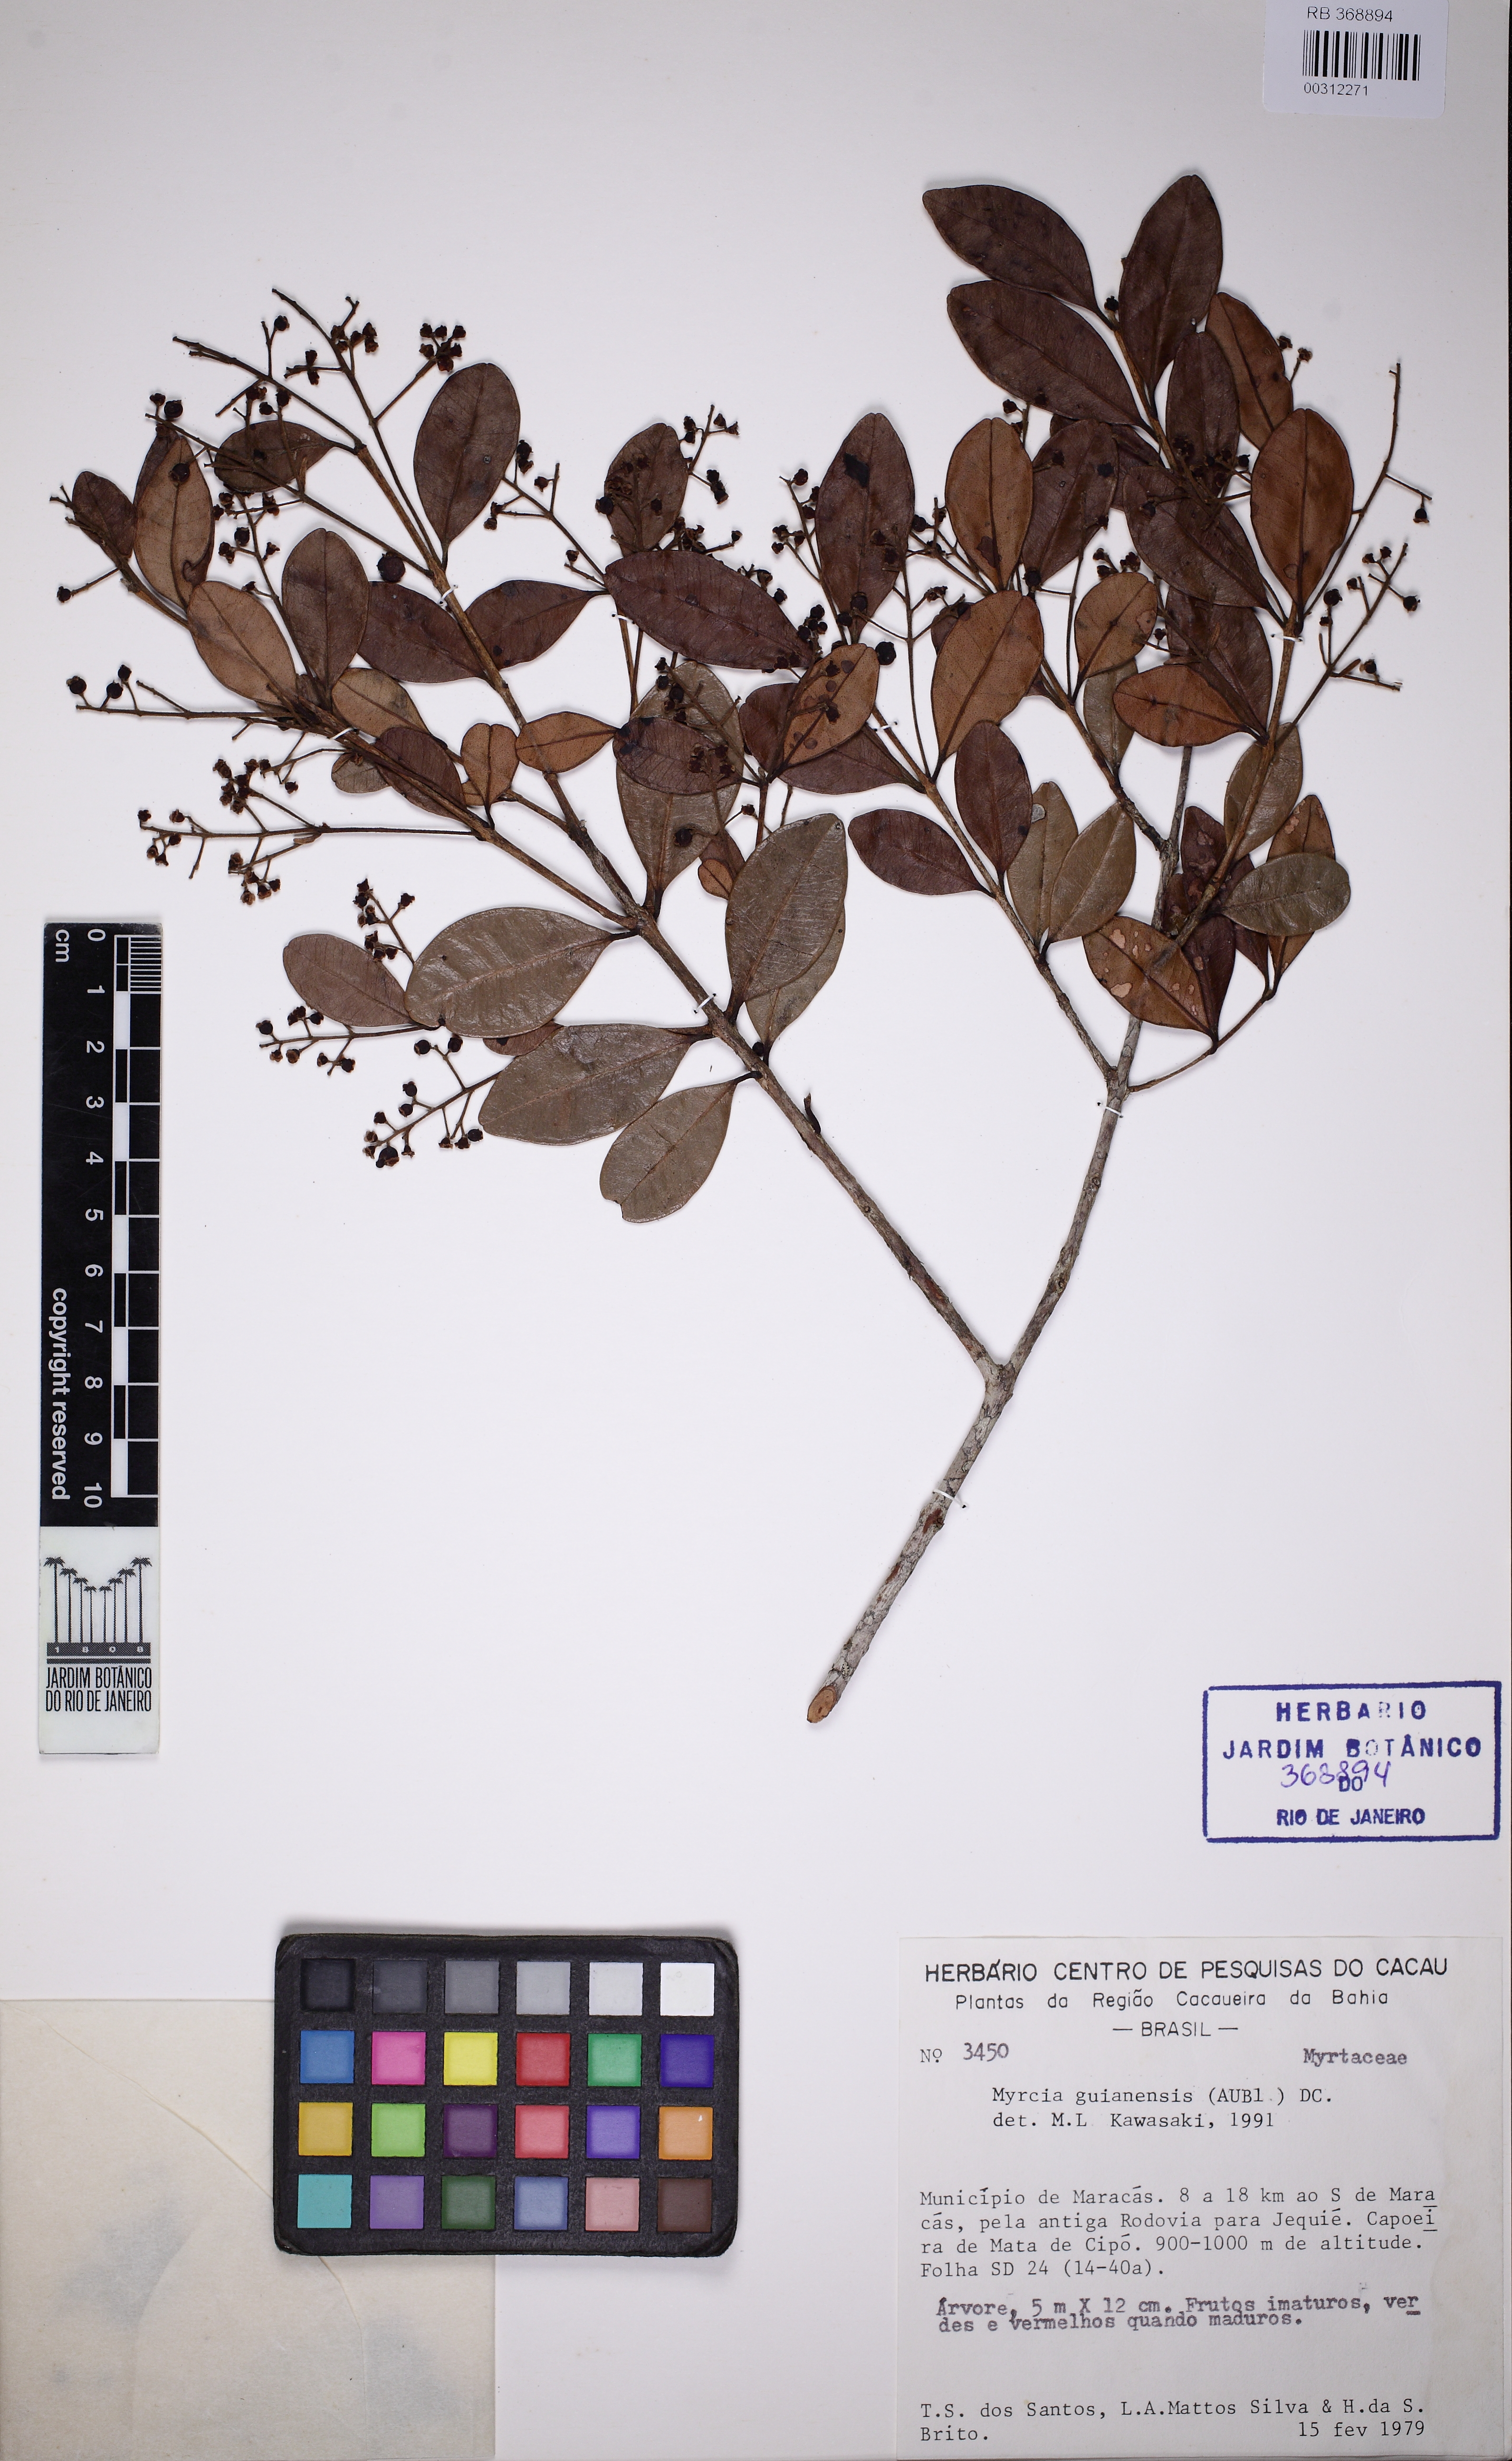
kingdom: Plantae
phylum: Tracheophyta
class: Magnoliopsida
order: Myrtales
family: Myrtaceae
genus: Myrcia
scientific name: Myrcia guianensis
